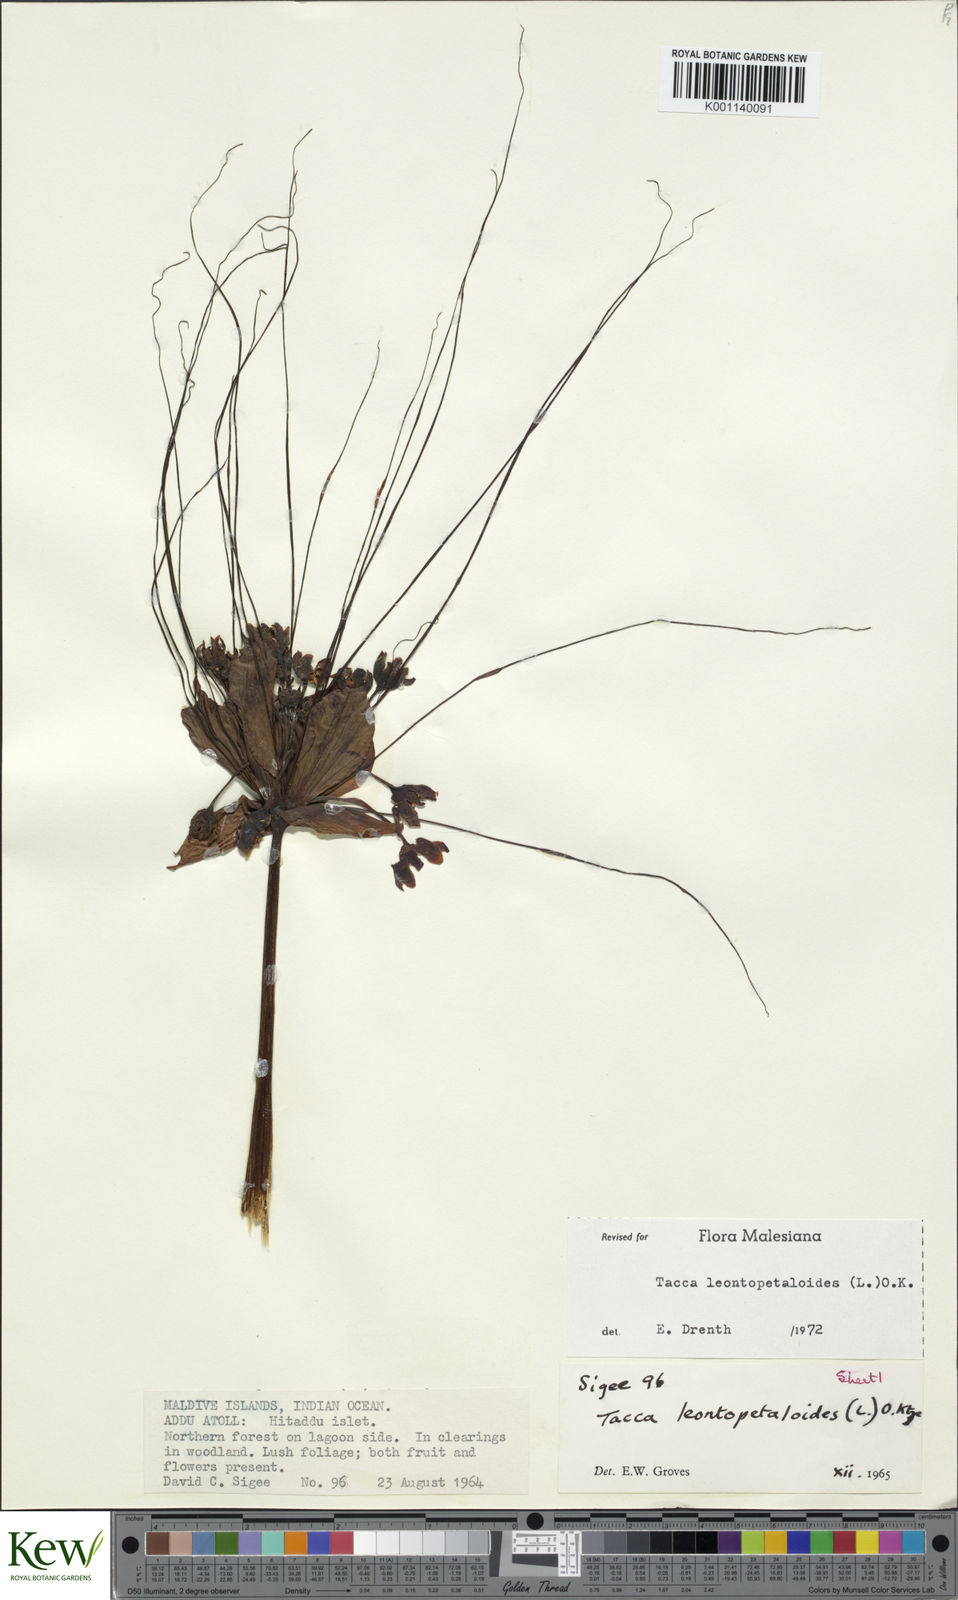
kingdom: Plantae
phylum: Tracheophyta
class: Liliopsida
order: Dioscoreales
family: Dioscoreaceae
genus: Tacca
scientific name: Tacca leontopetaloides
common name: Arrowroot
